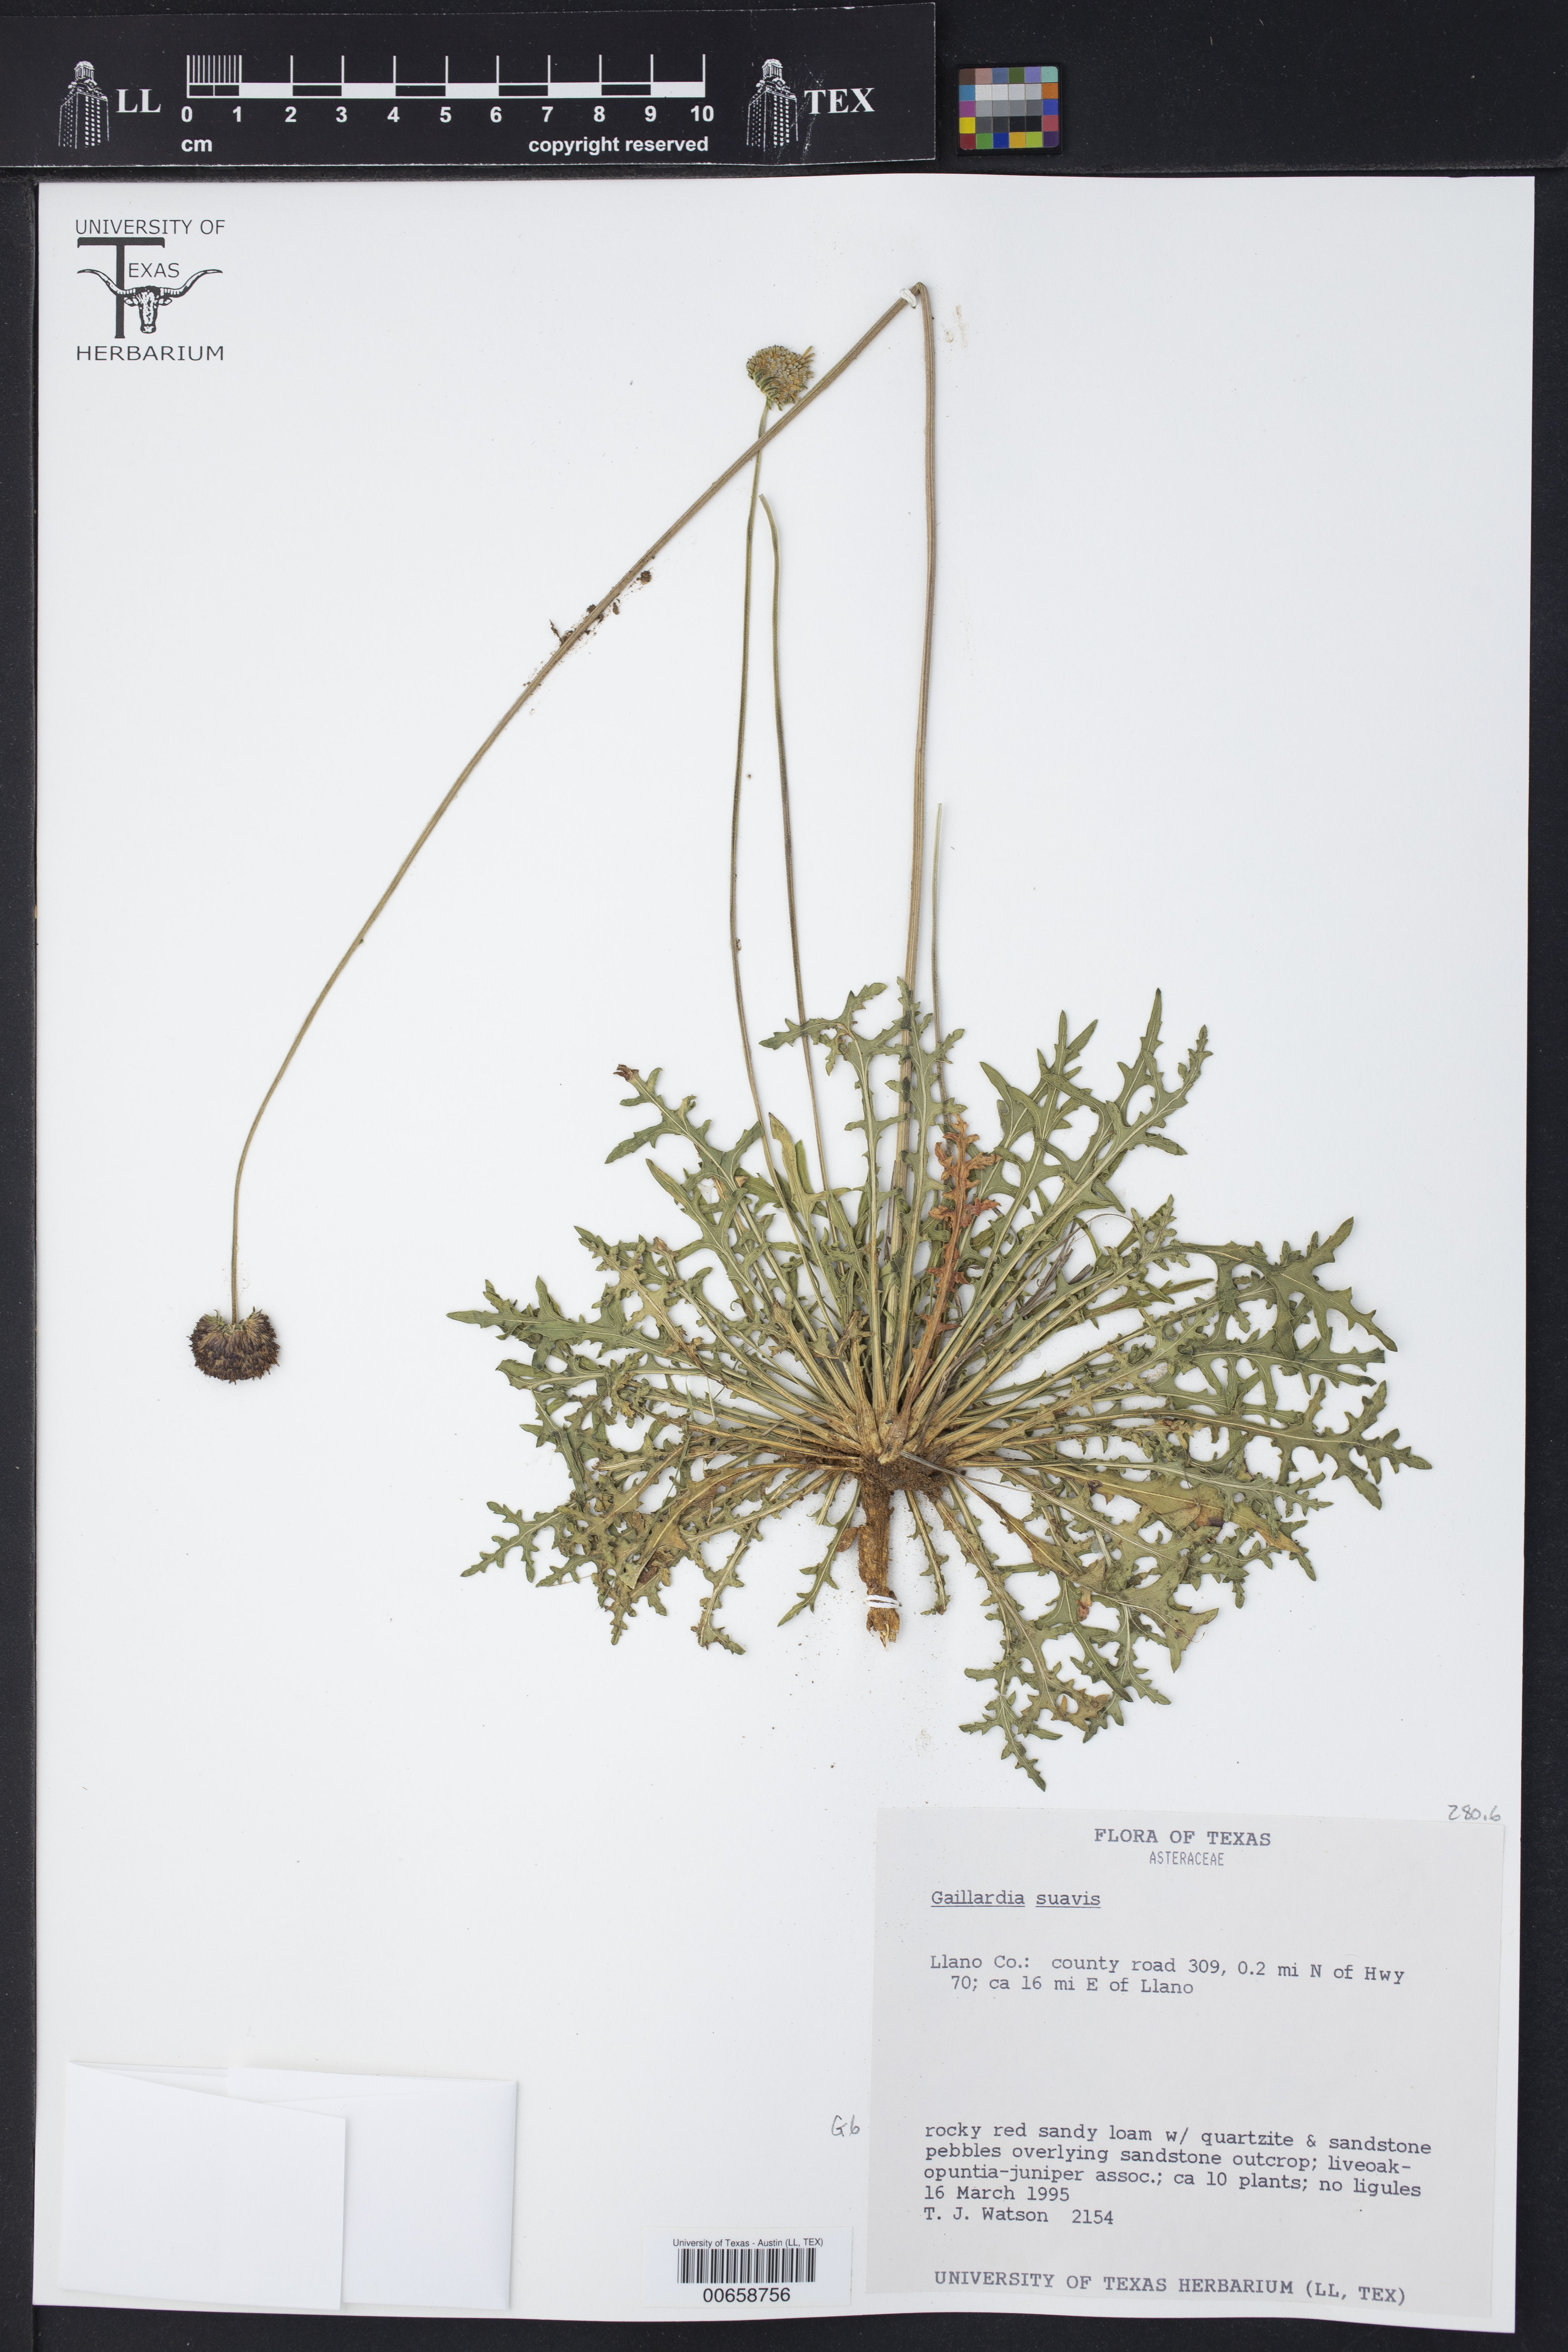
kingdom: Plantae
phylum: Tracheophyta
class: Magnoliopsida
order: Asterales
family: Asteraceae
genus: Gaillardia
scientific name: Gaillardia suavis
